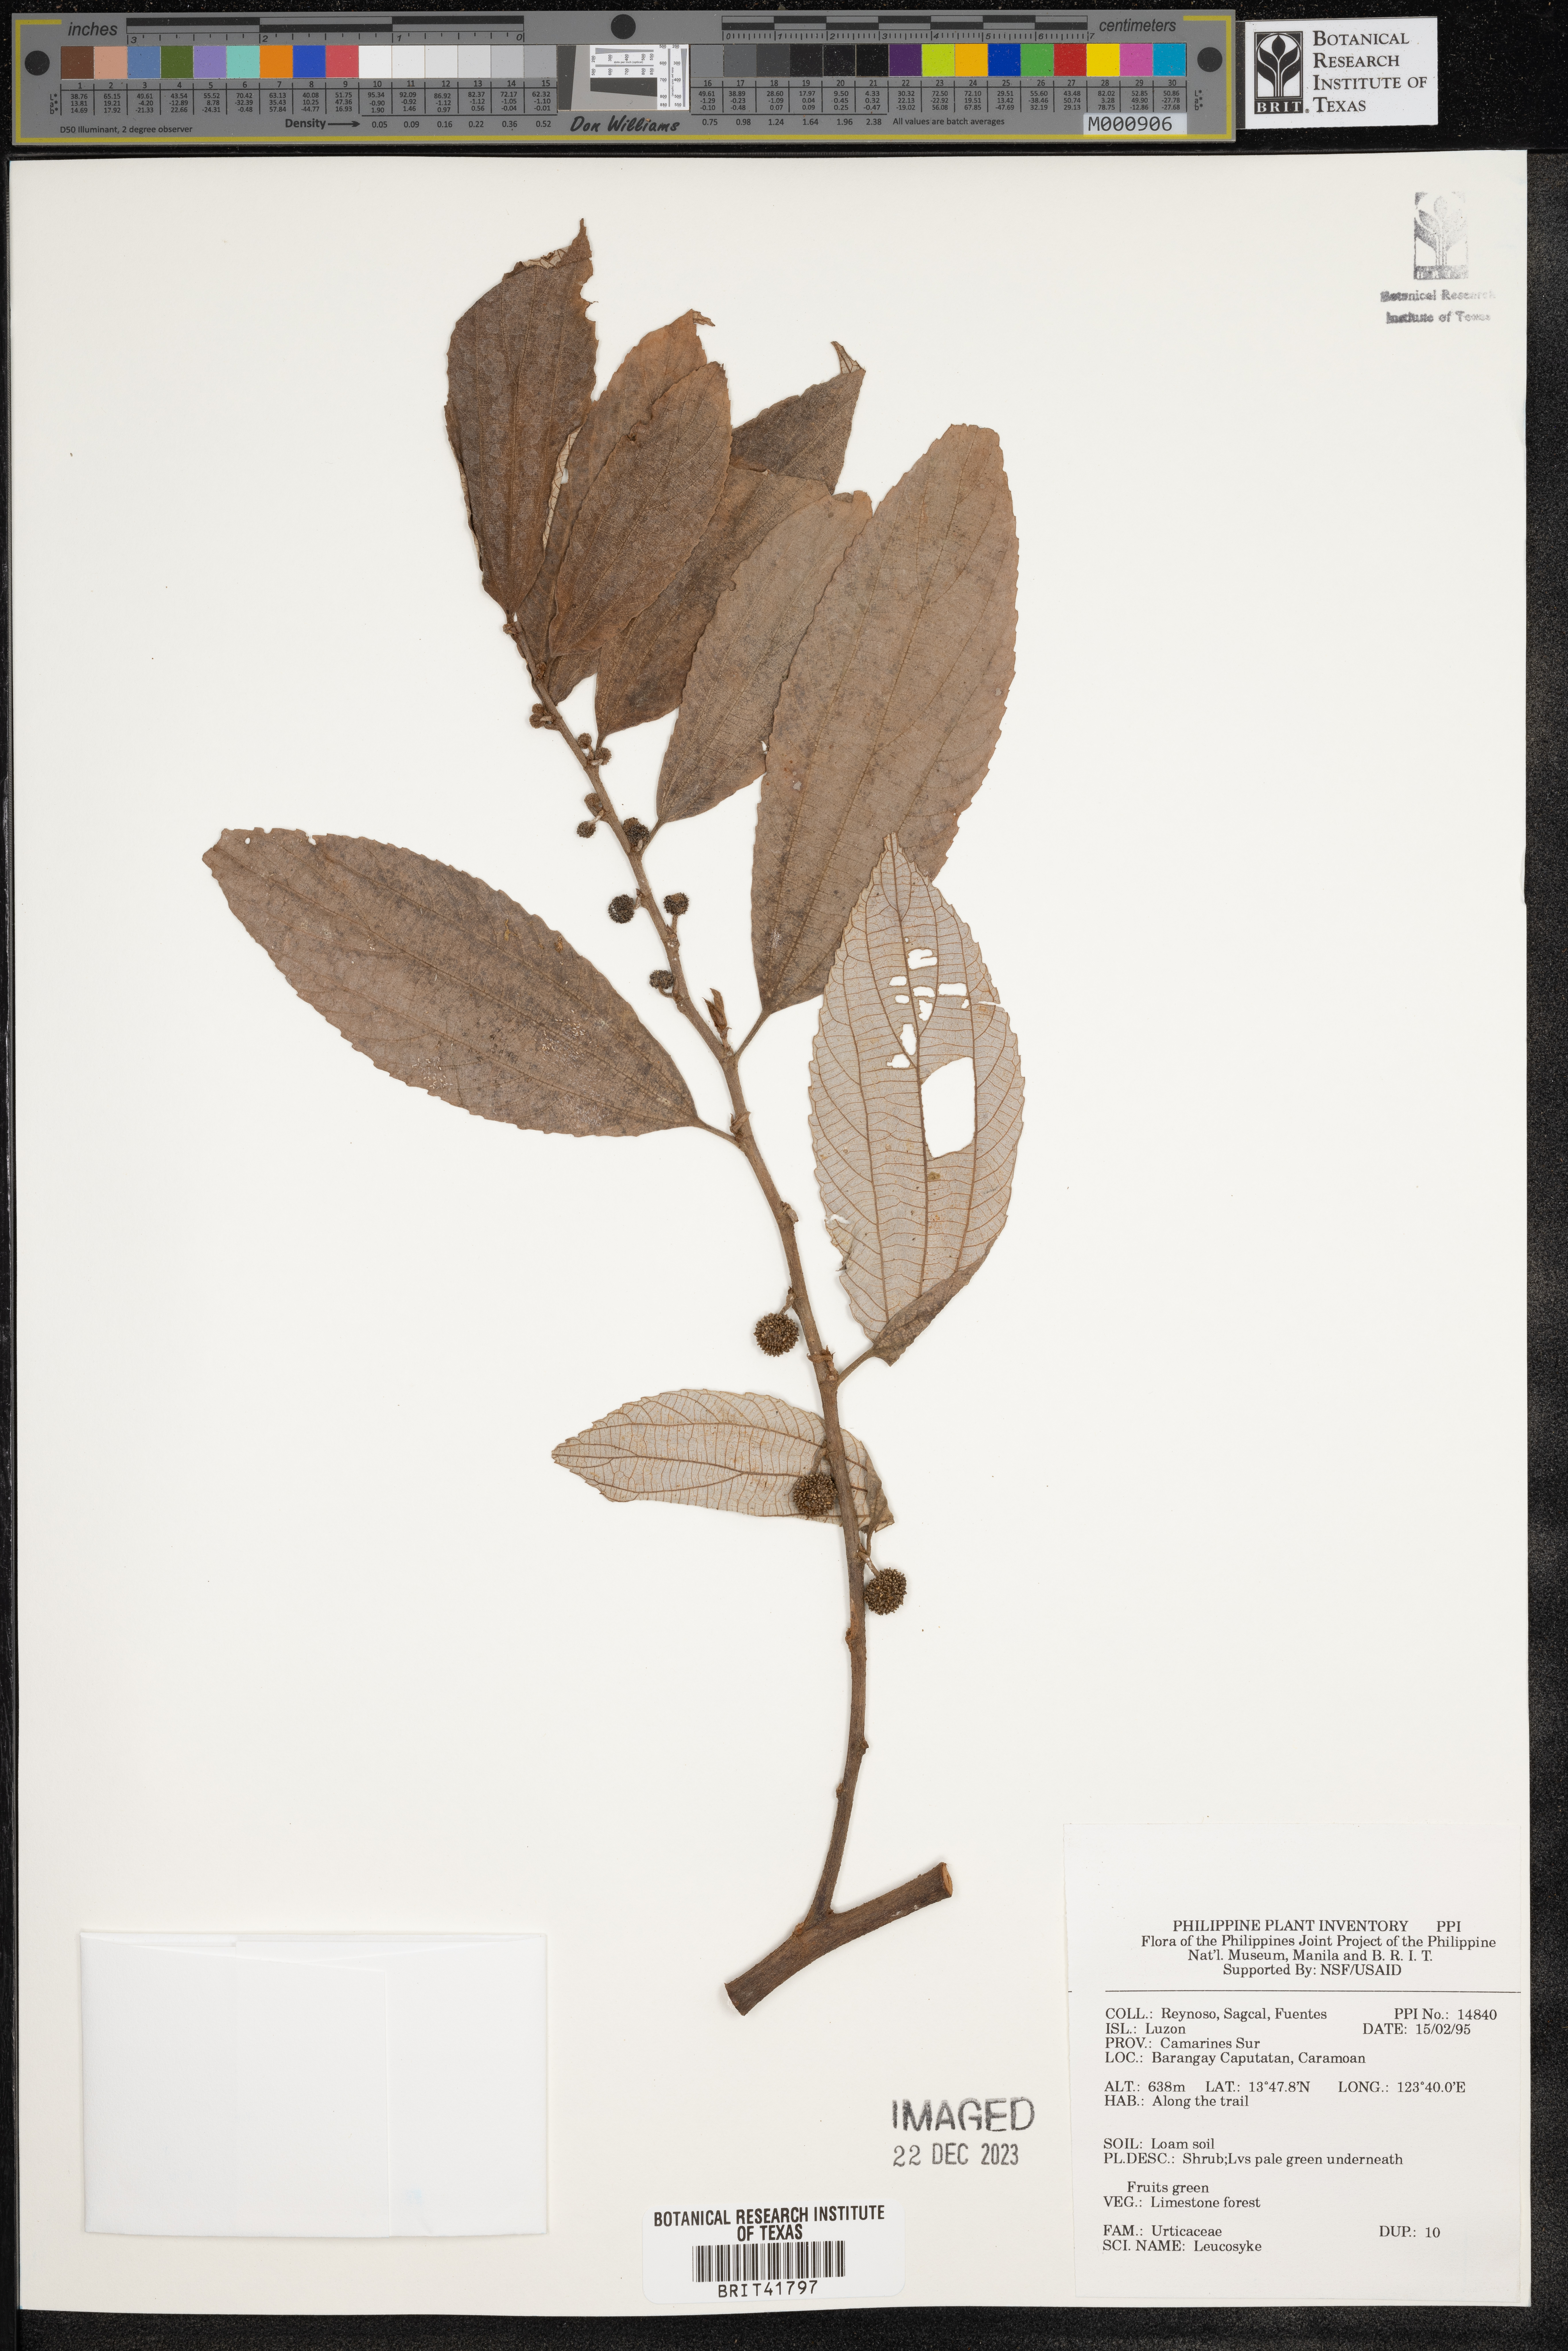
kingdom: Plantae
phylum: Tracheophyta
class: Magnoliopsida
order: Rosales
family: Urticaceae
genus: Leucosyke
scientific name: Leucosyke
